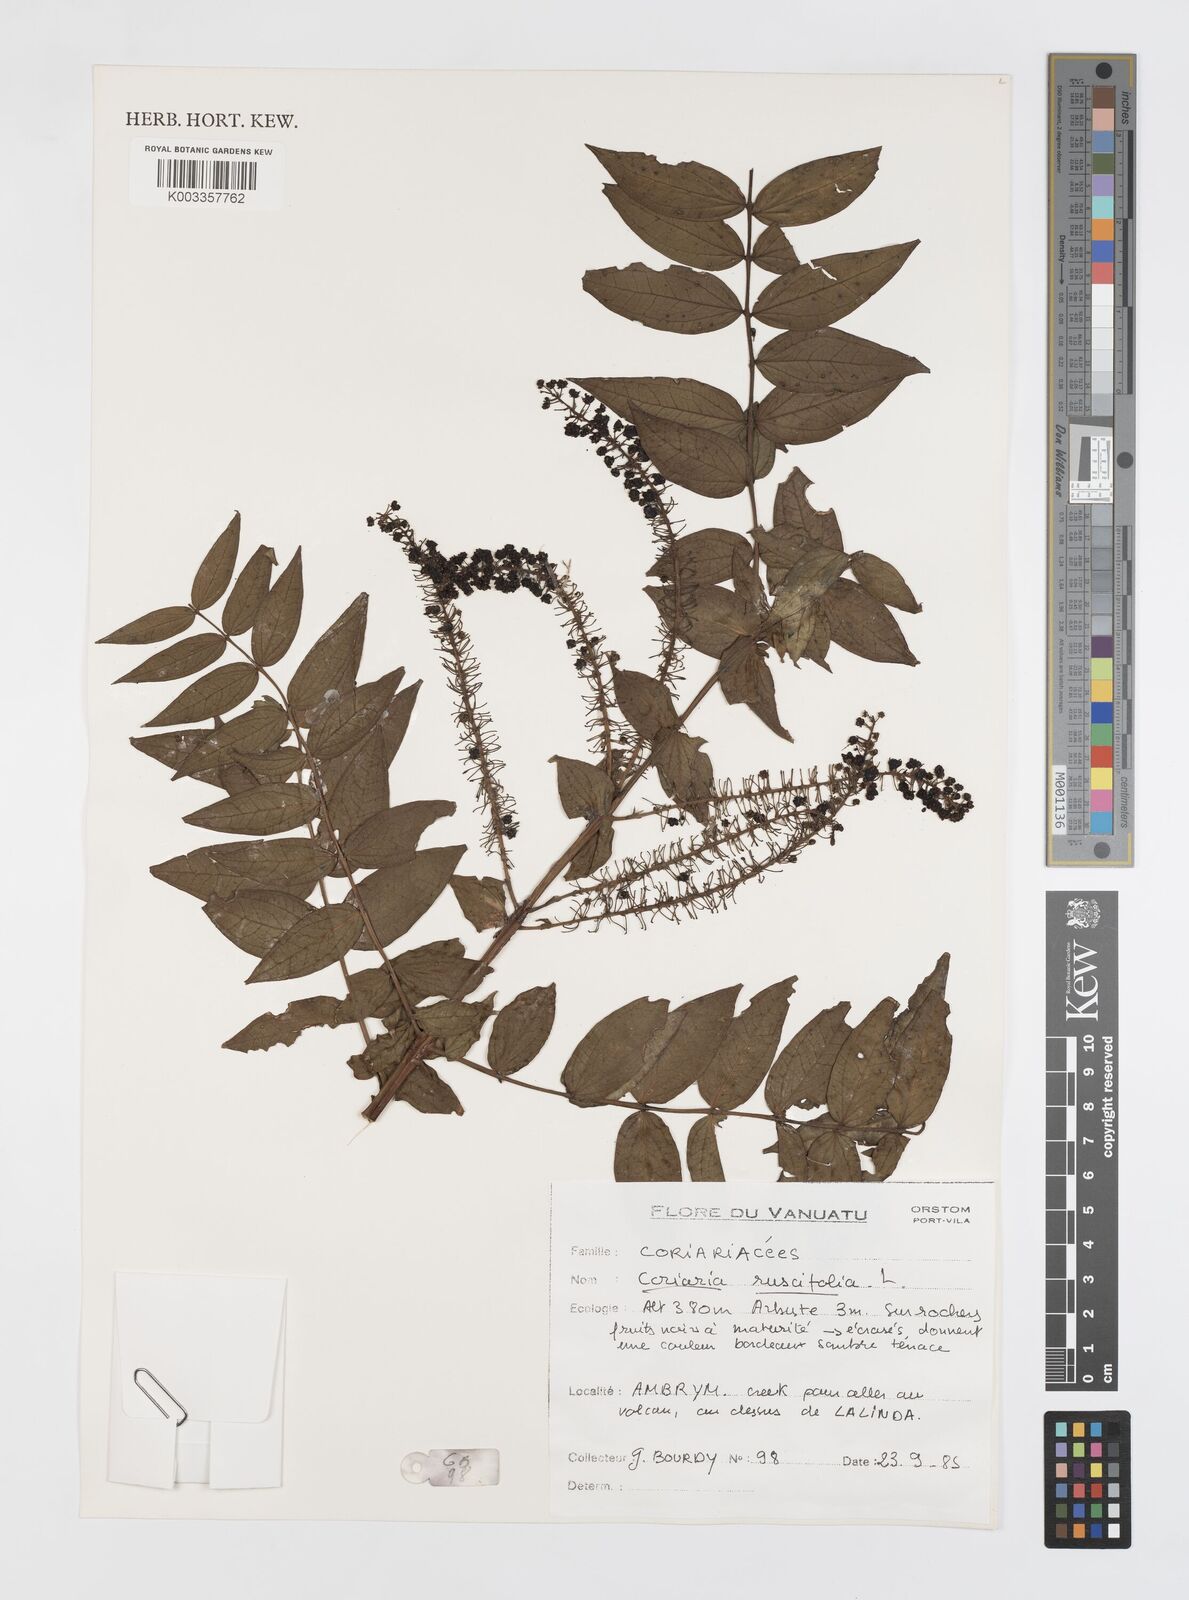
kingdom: Plantae
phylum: Tracheophyta
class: Magnoliopsida
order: Cucurbitales
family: Coriariaceae
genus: Coriaria
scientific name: Coriaria ruscifolia
